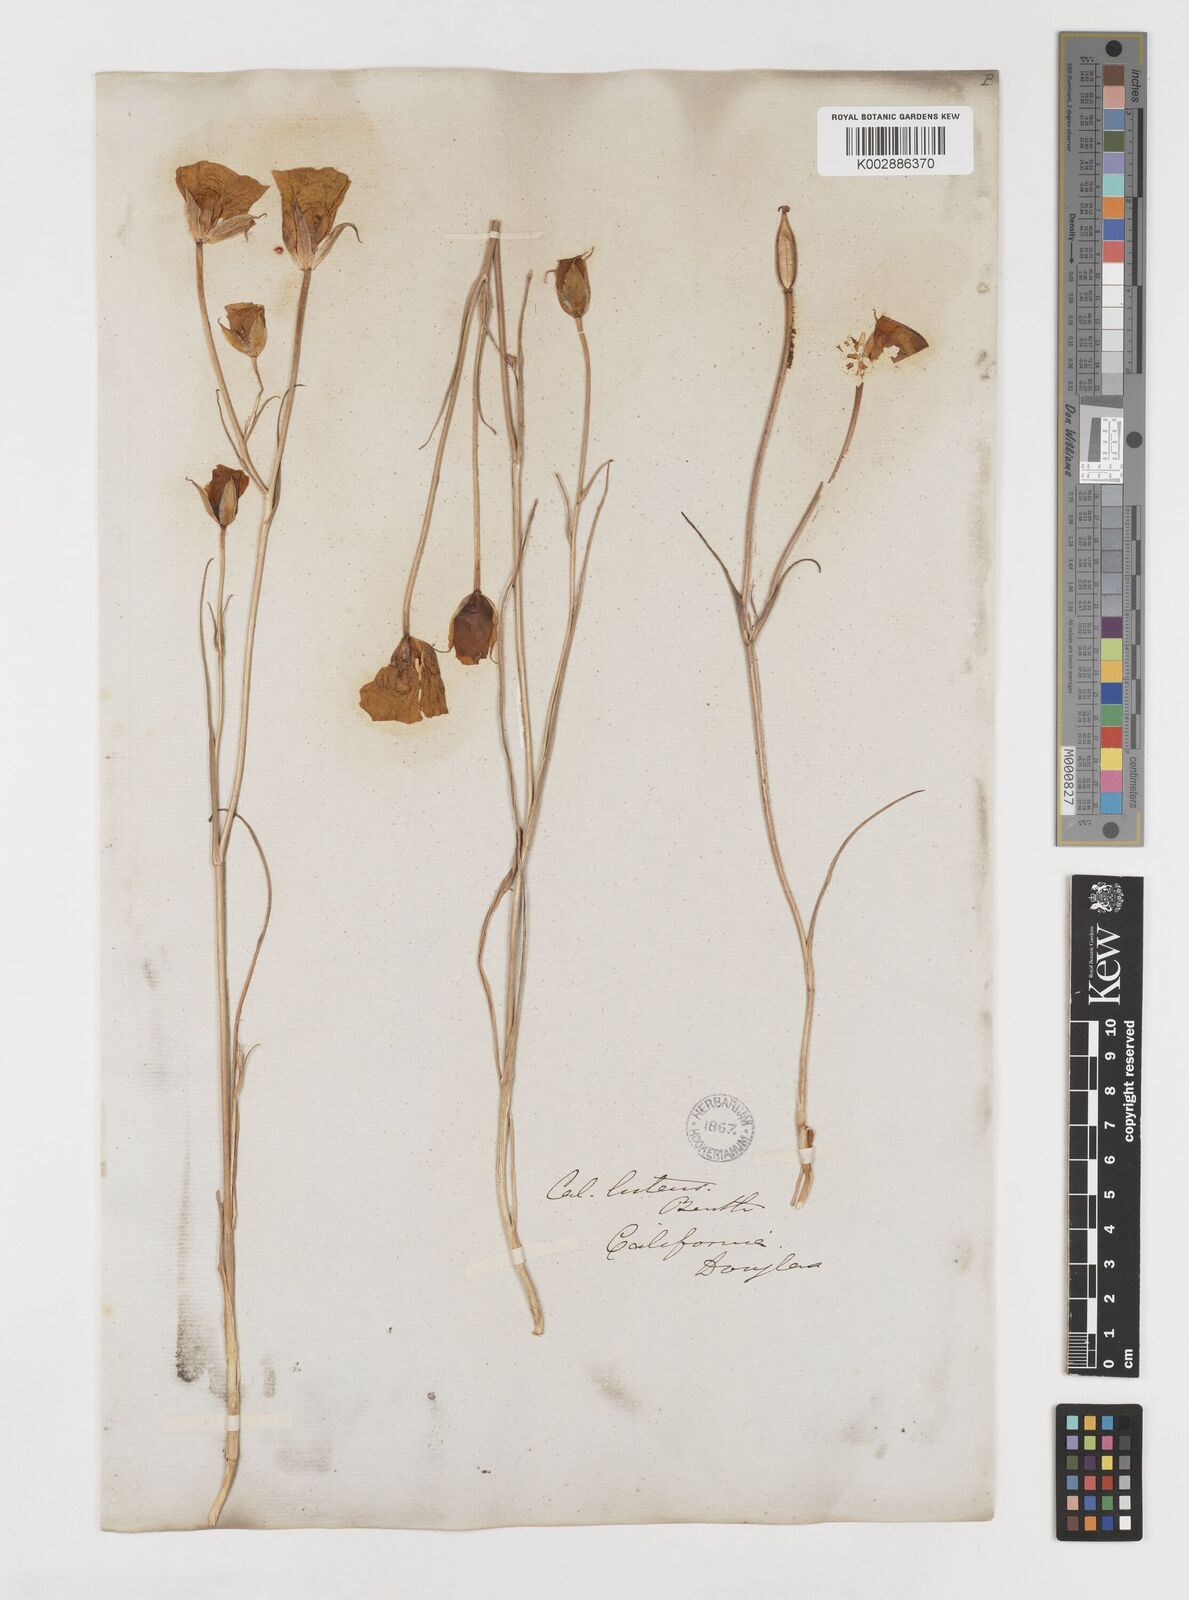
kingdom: Plantae
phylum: Tracheophyta
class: Liliopsida
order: Liliales
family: Liliaceae
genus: Calochortus
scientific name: Calochortus nuttallii
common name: Sego-lily
